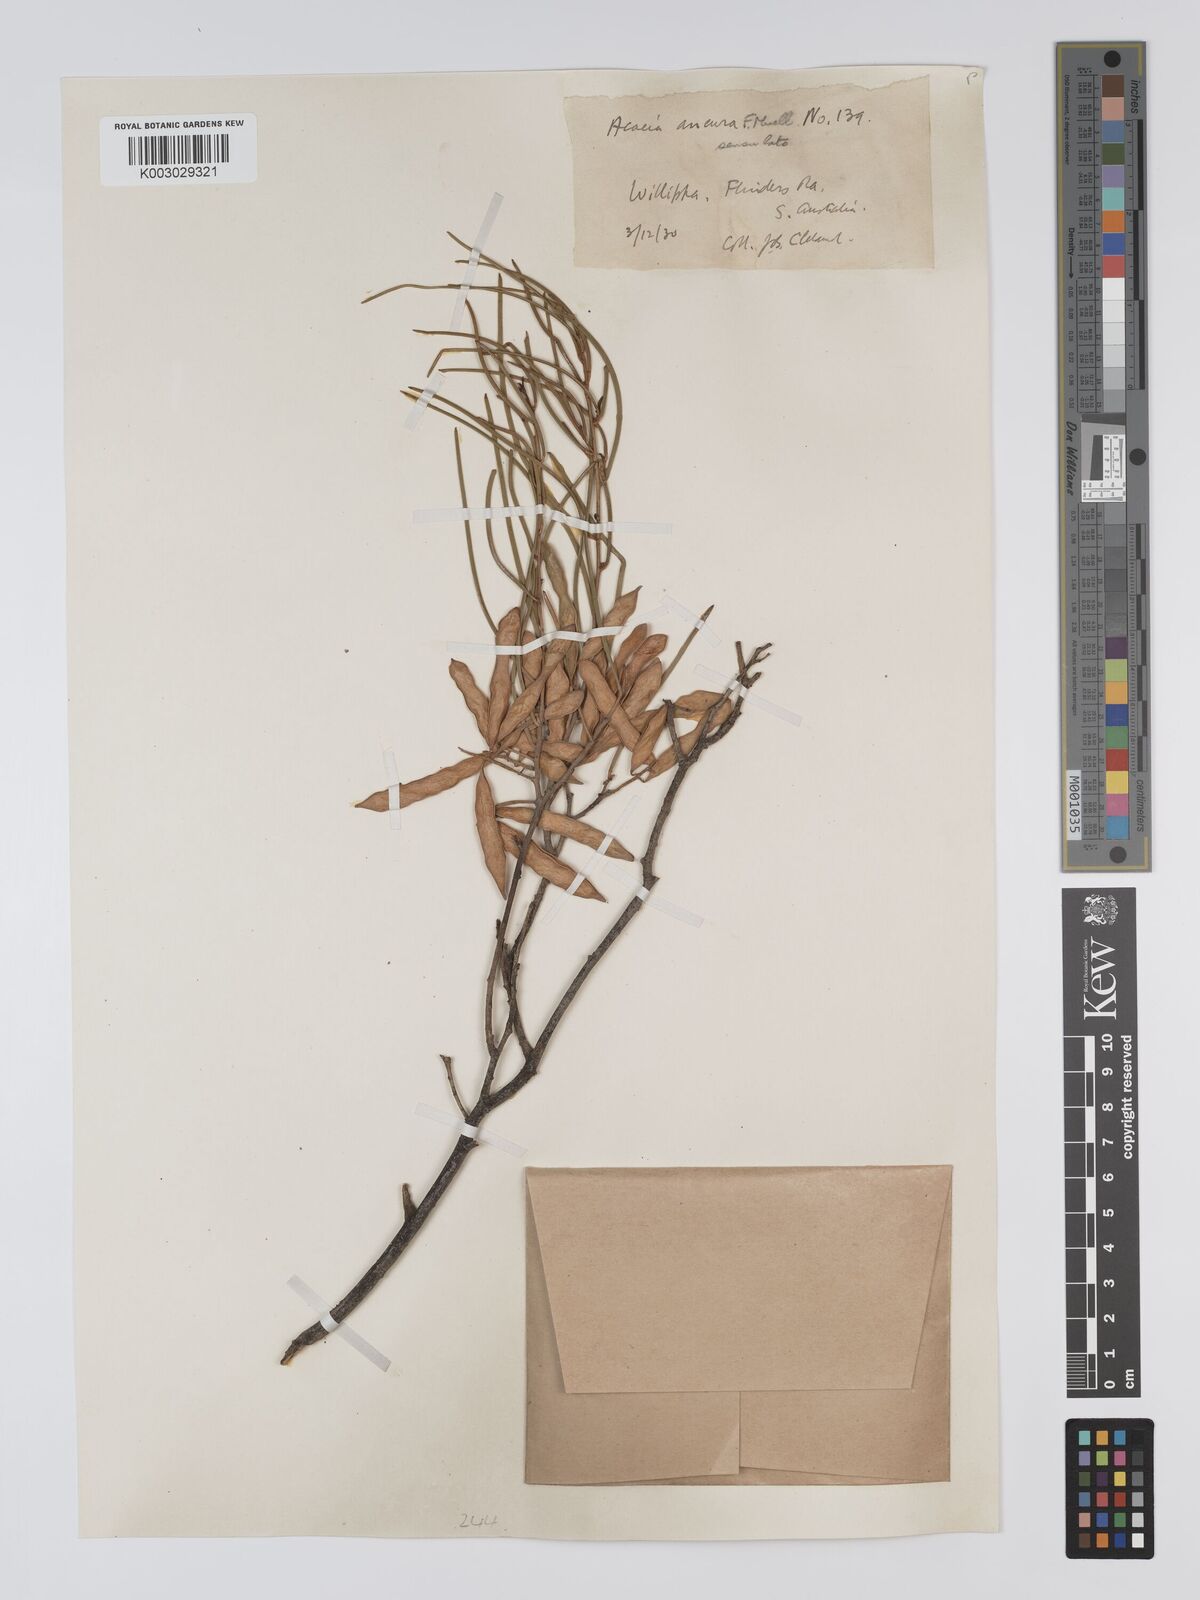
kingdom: Plantae
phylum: Tracheophyta
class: Magnoliopsida
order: Fabales
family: Fabaceae
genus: Acacia
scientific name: Acacia aneura
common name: Mulga
